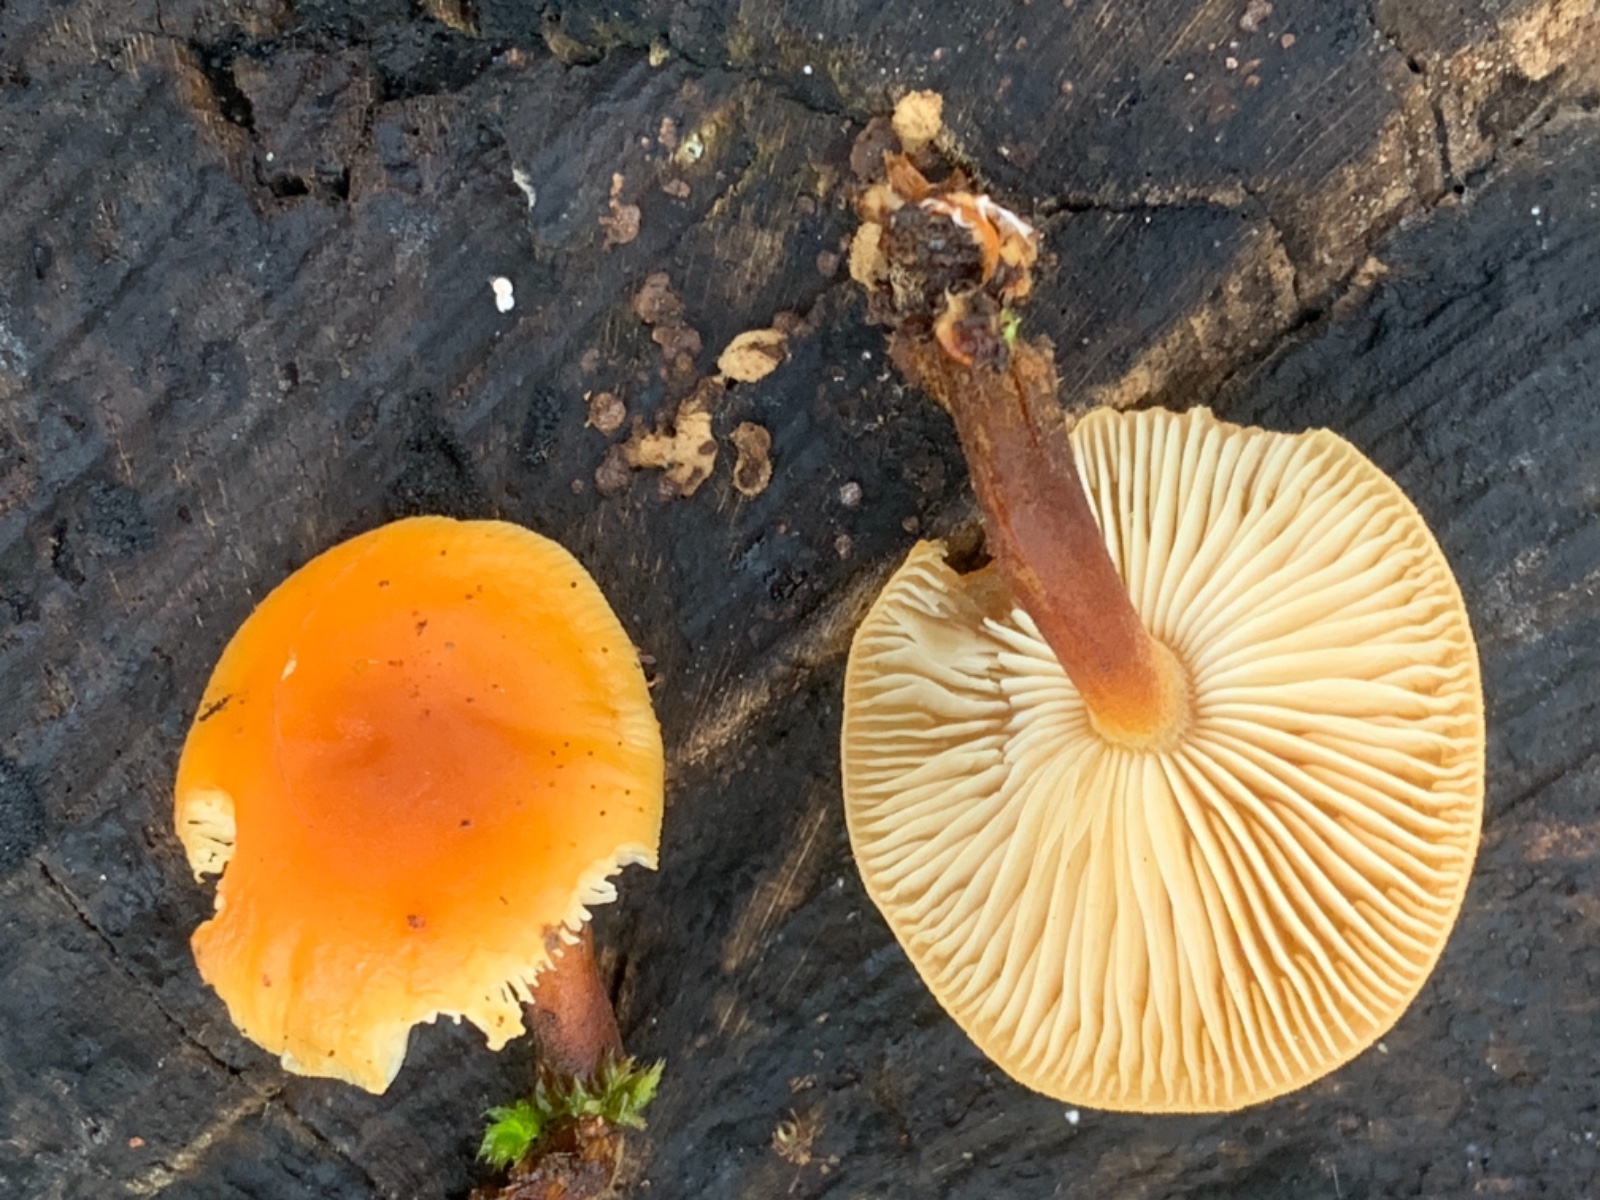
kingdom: Fungi
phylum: Basidiomycota
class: Agaricomycetes
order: Agaricales
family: Physalacriaceae
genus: Flammulina
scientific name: Flammulina velutipes
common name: gul fløjlsfod
